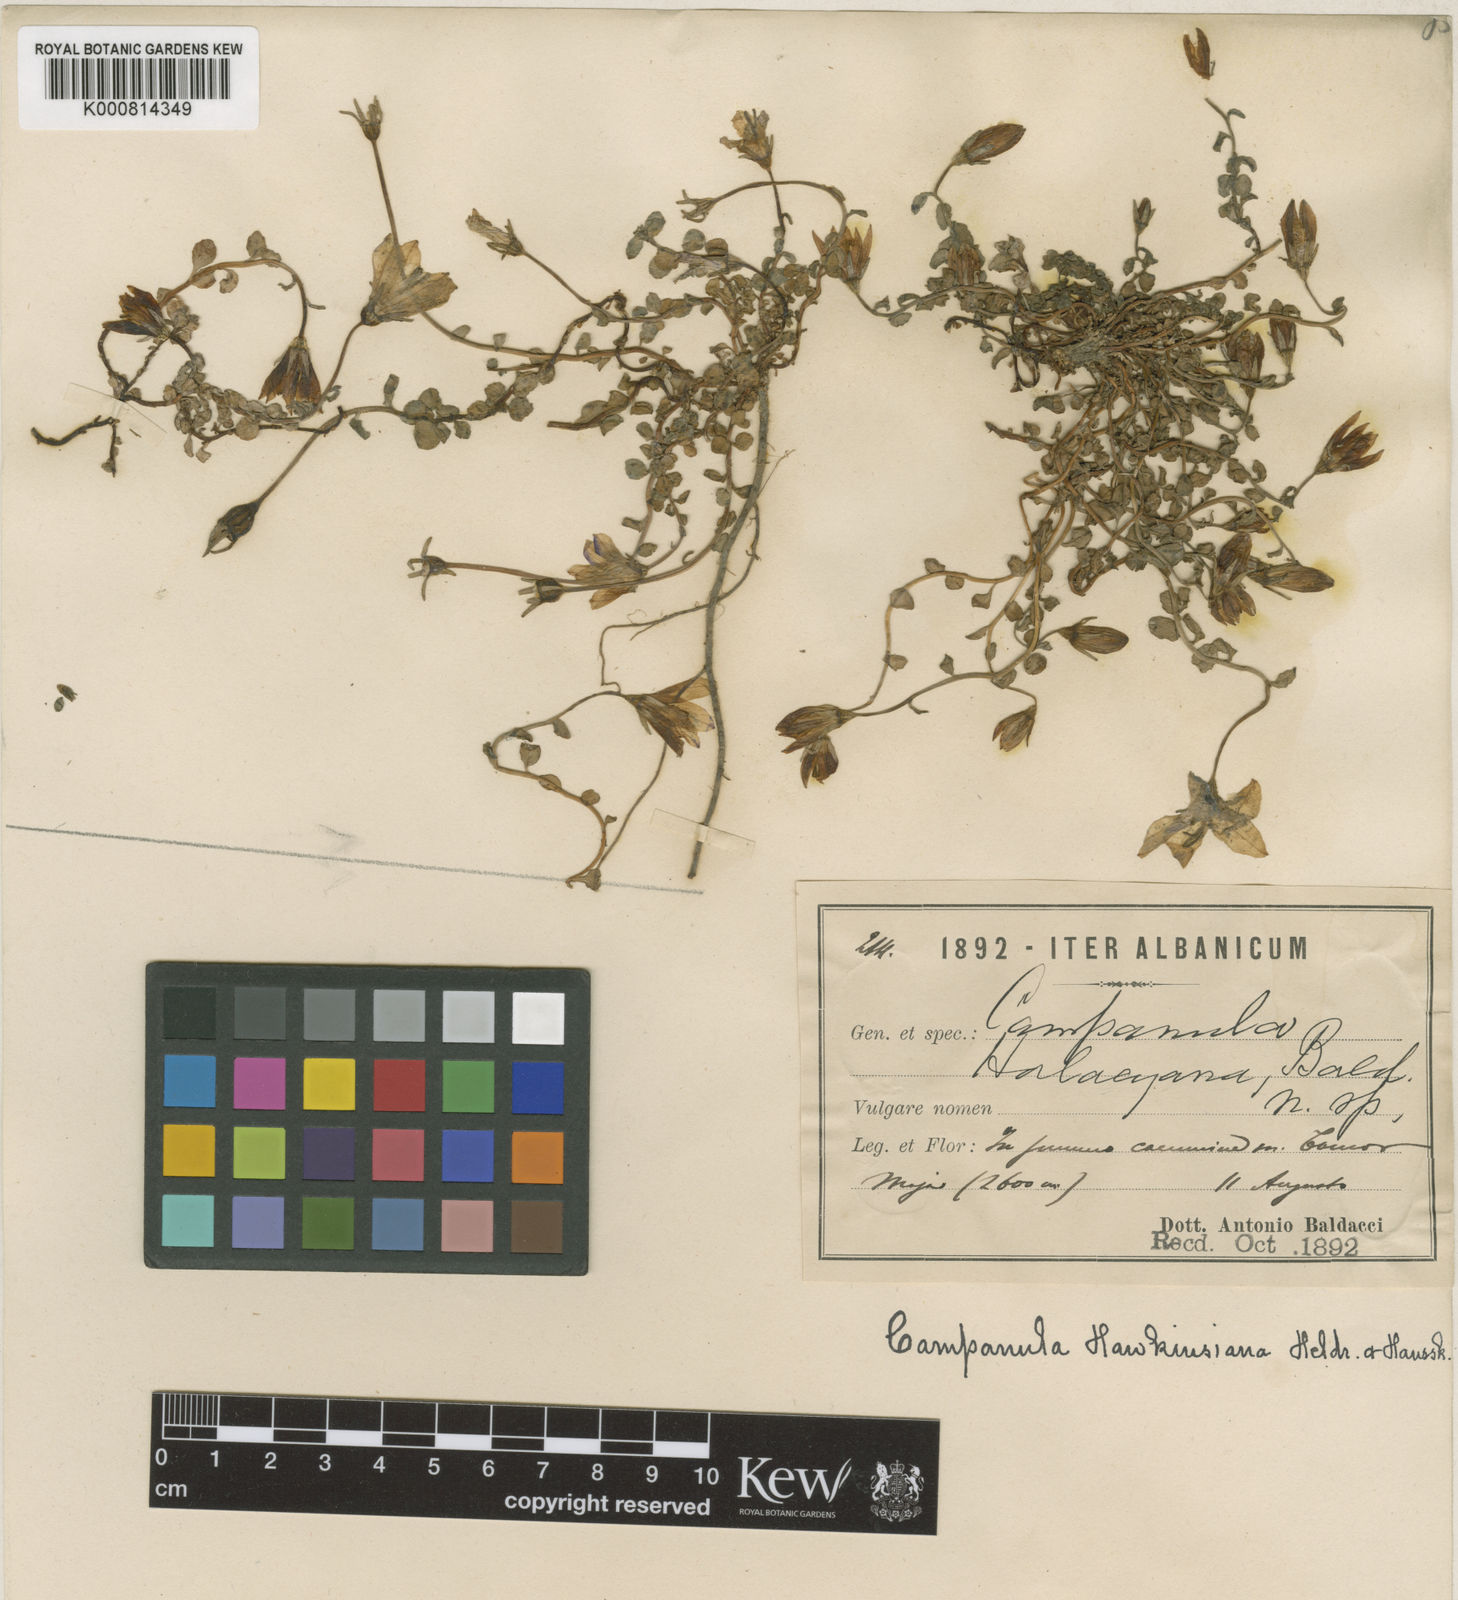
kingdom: Plantae
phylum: Tracheophyta
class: Magnoliopsida
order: Asterales
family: Campanulaceae
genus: Campanula
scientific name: Campanula hawkinsiana
